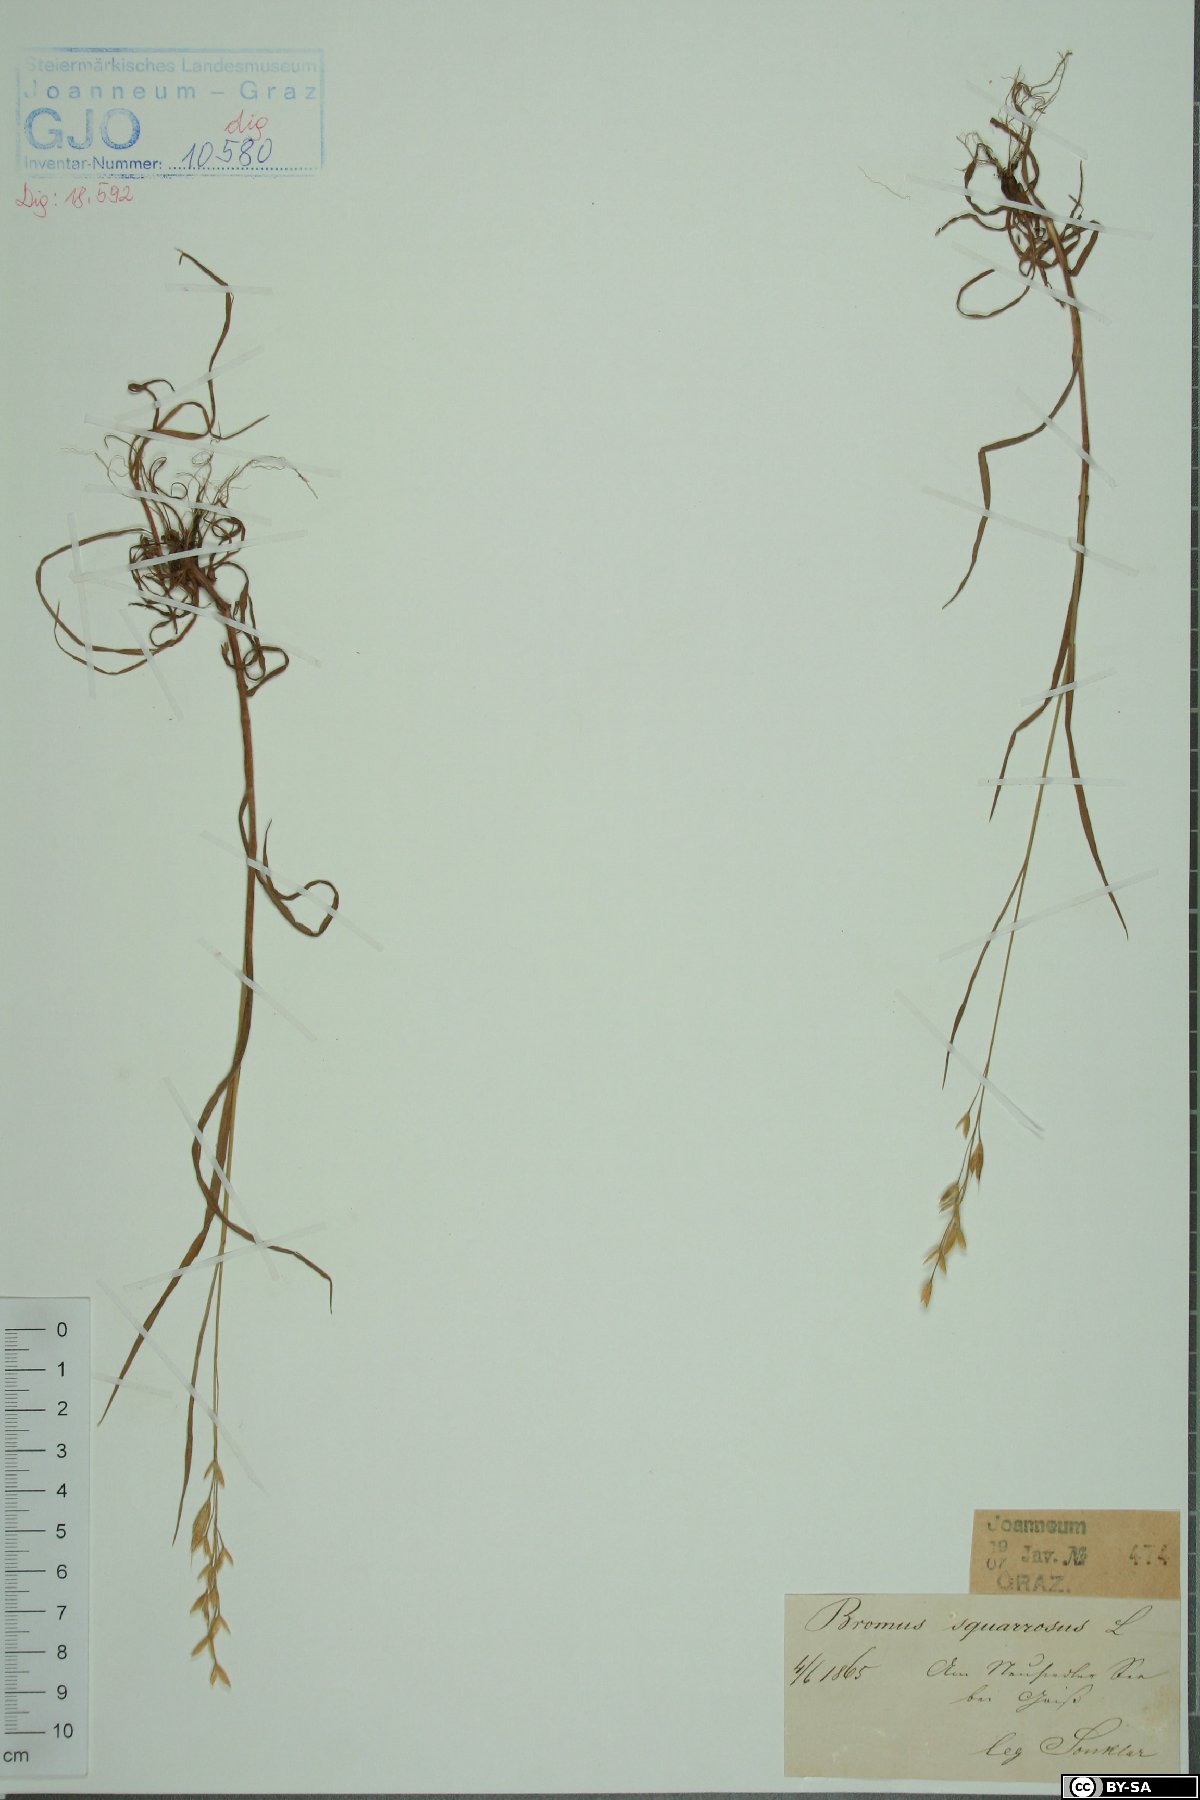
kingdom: Plantae
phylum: Tracheophyta
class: Liliopsida
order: Poales
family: Poaceae
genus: Bromus
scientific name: Bromus squarrosus
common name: Corn brome
